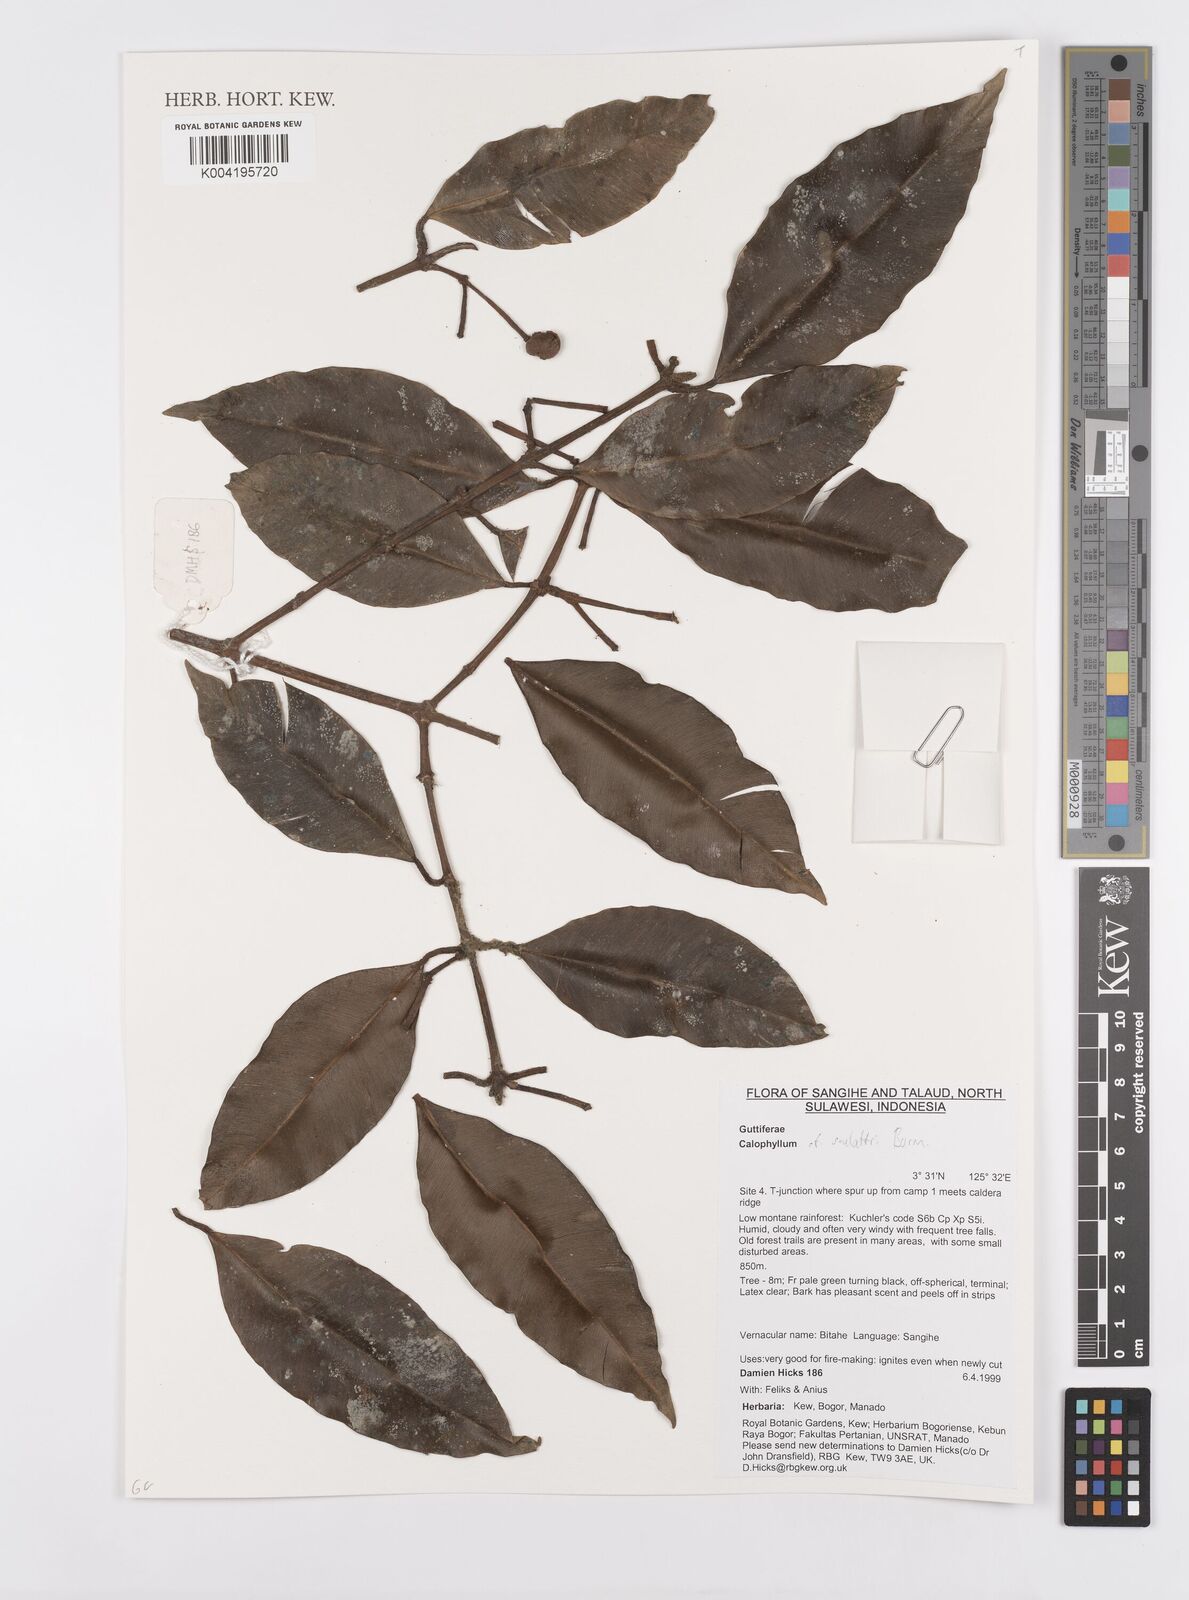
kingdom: Plantae
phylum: Tracheophyta
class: Magnoliopsida
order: Malpighiales
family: Calophyllaceae
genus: Calophyllum
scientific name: Calophyllum soulattri
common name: Bitangoor boonot
